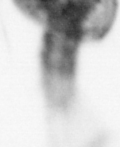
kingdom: Animalia
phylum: Arthropoda
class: Copepoda
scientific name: Copepoda
